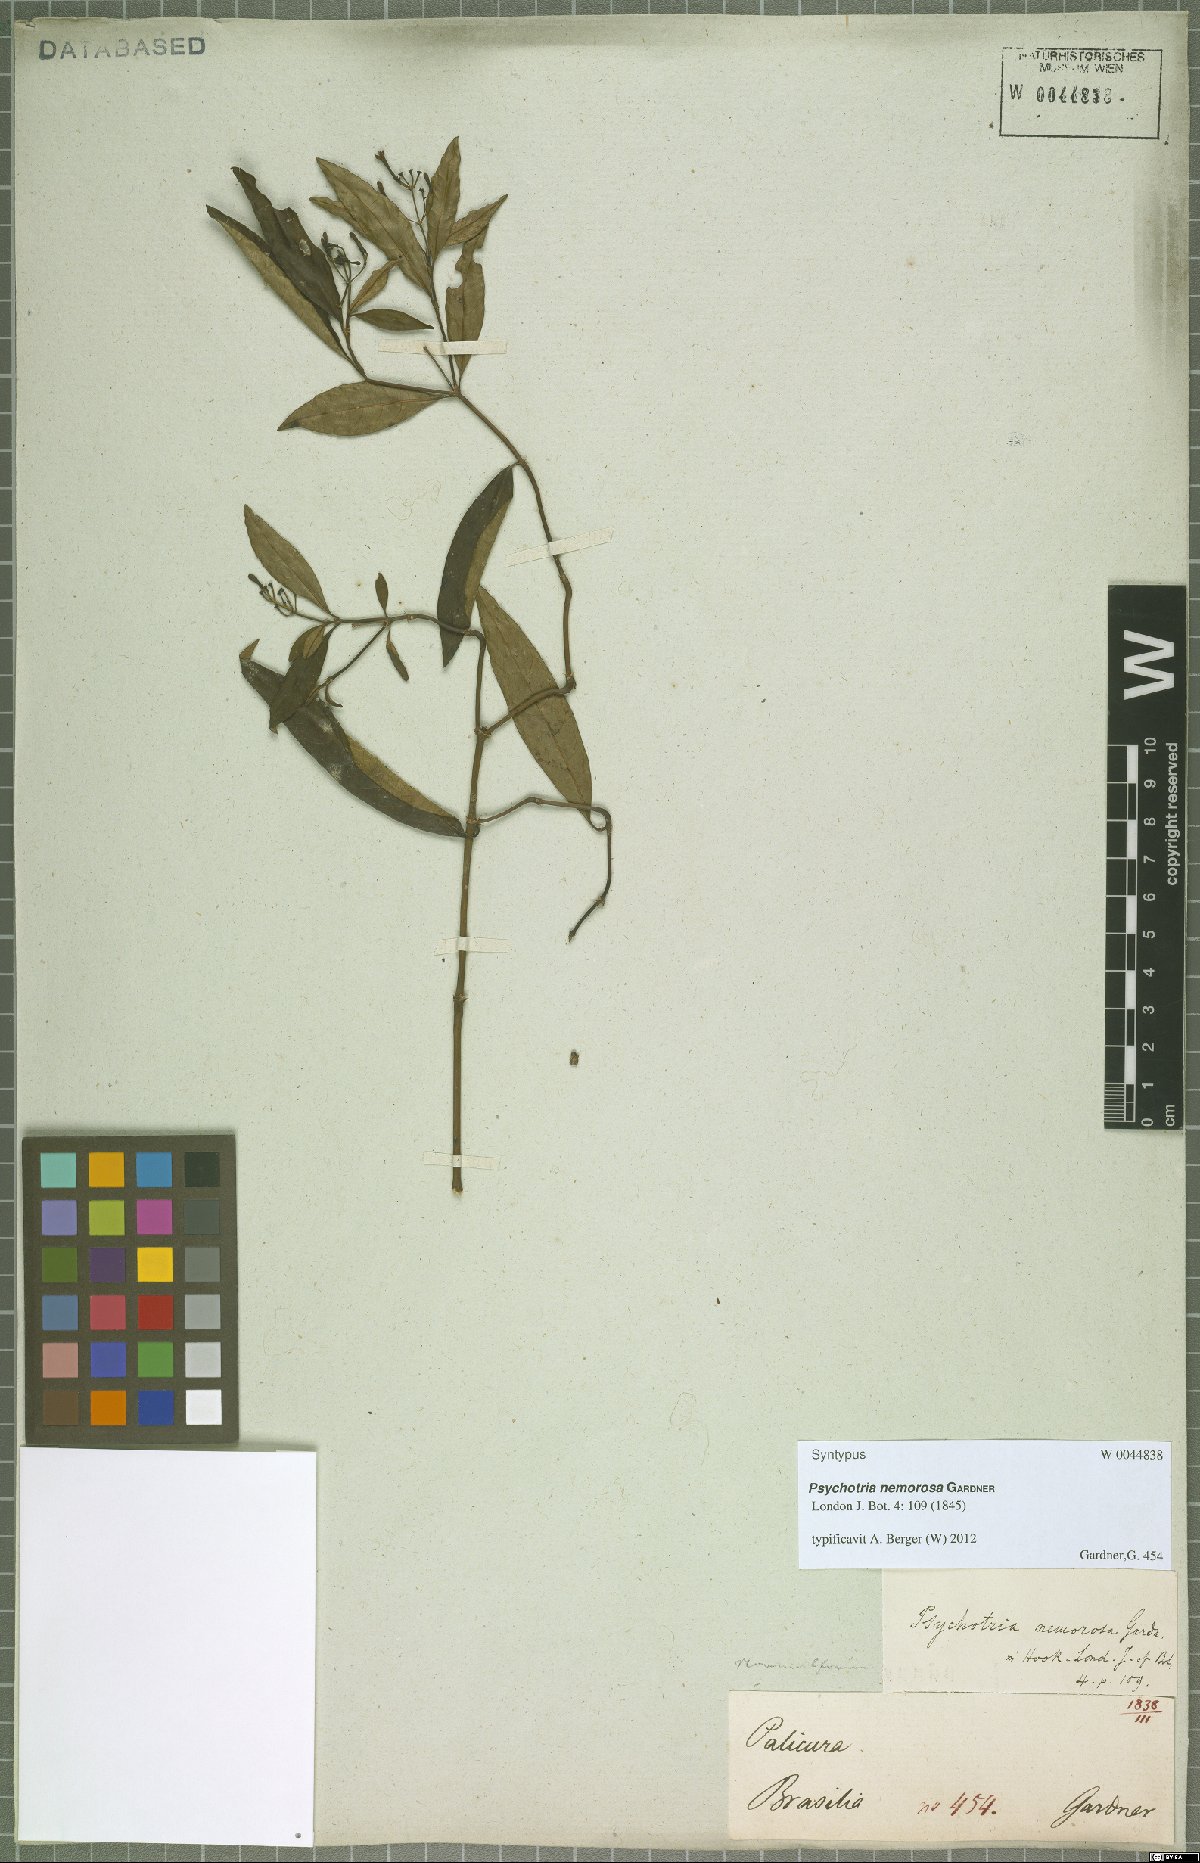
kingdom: Plantae
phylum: Tracheophyta
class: Magnoliopsida
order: Gentianales
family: Rubiaceae
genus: Psychotria
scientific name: Psychotria nemorosa
